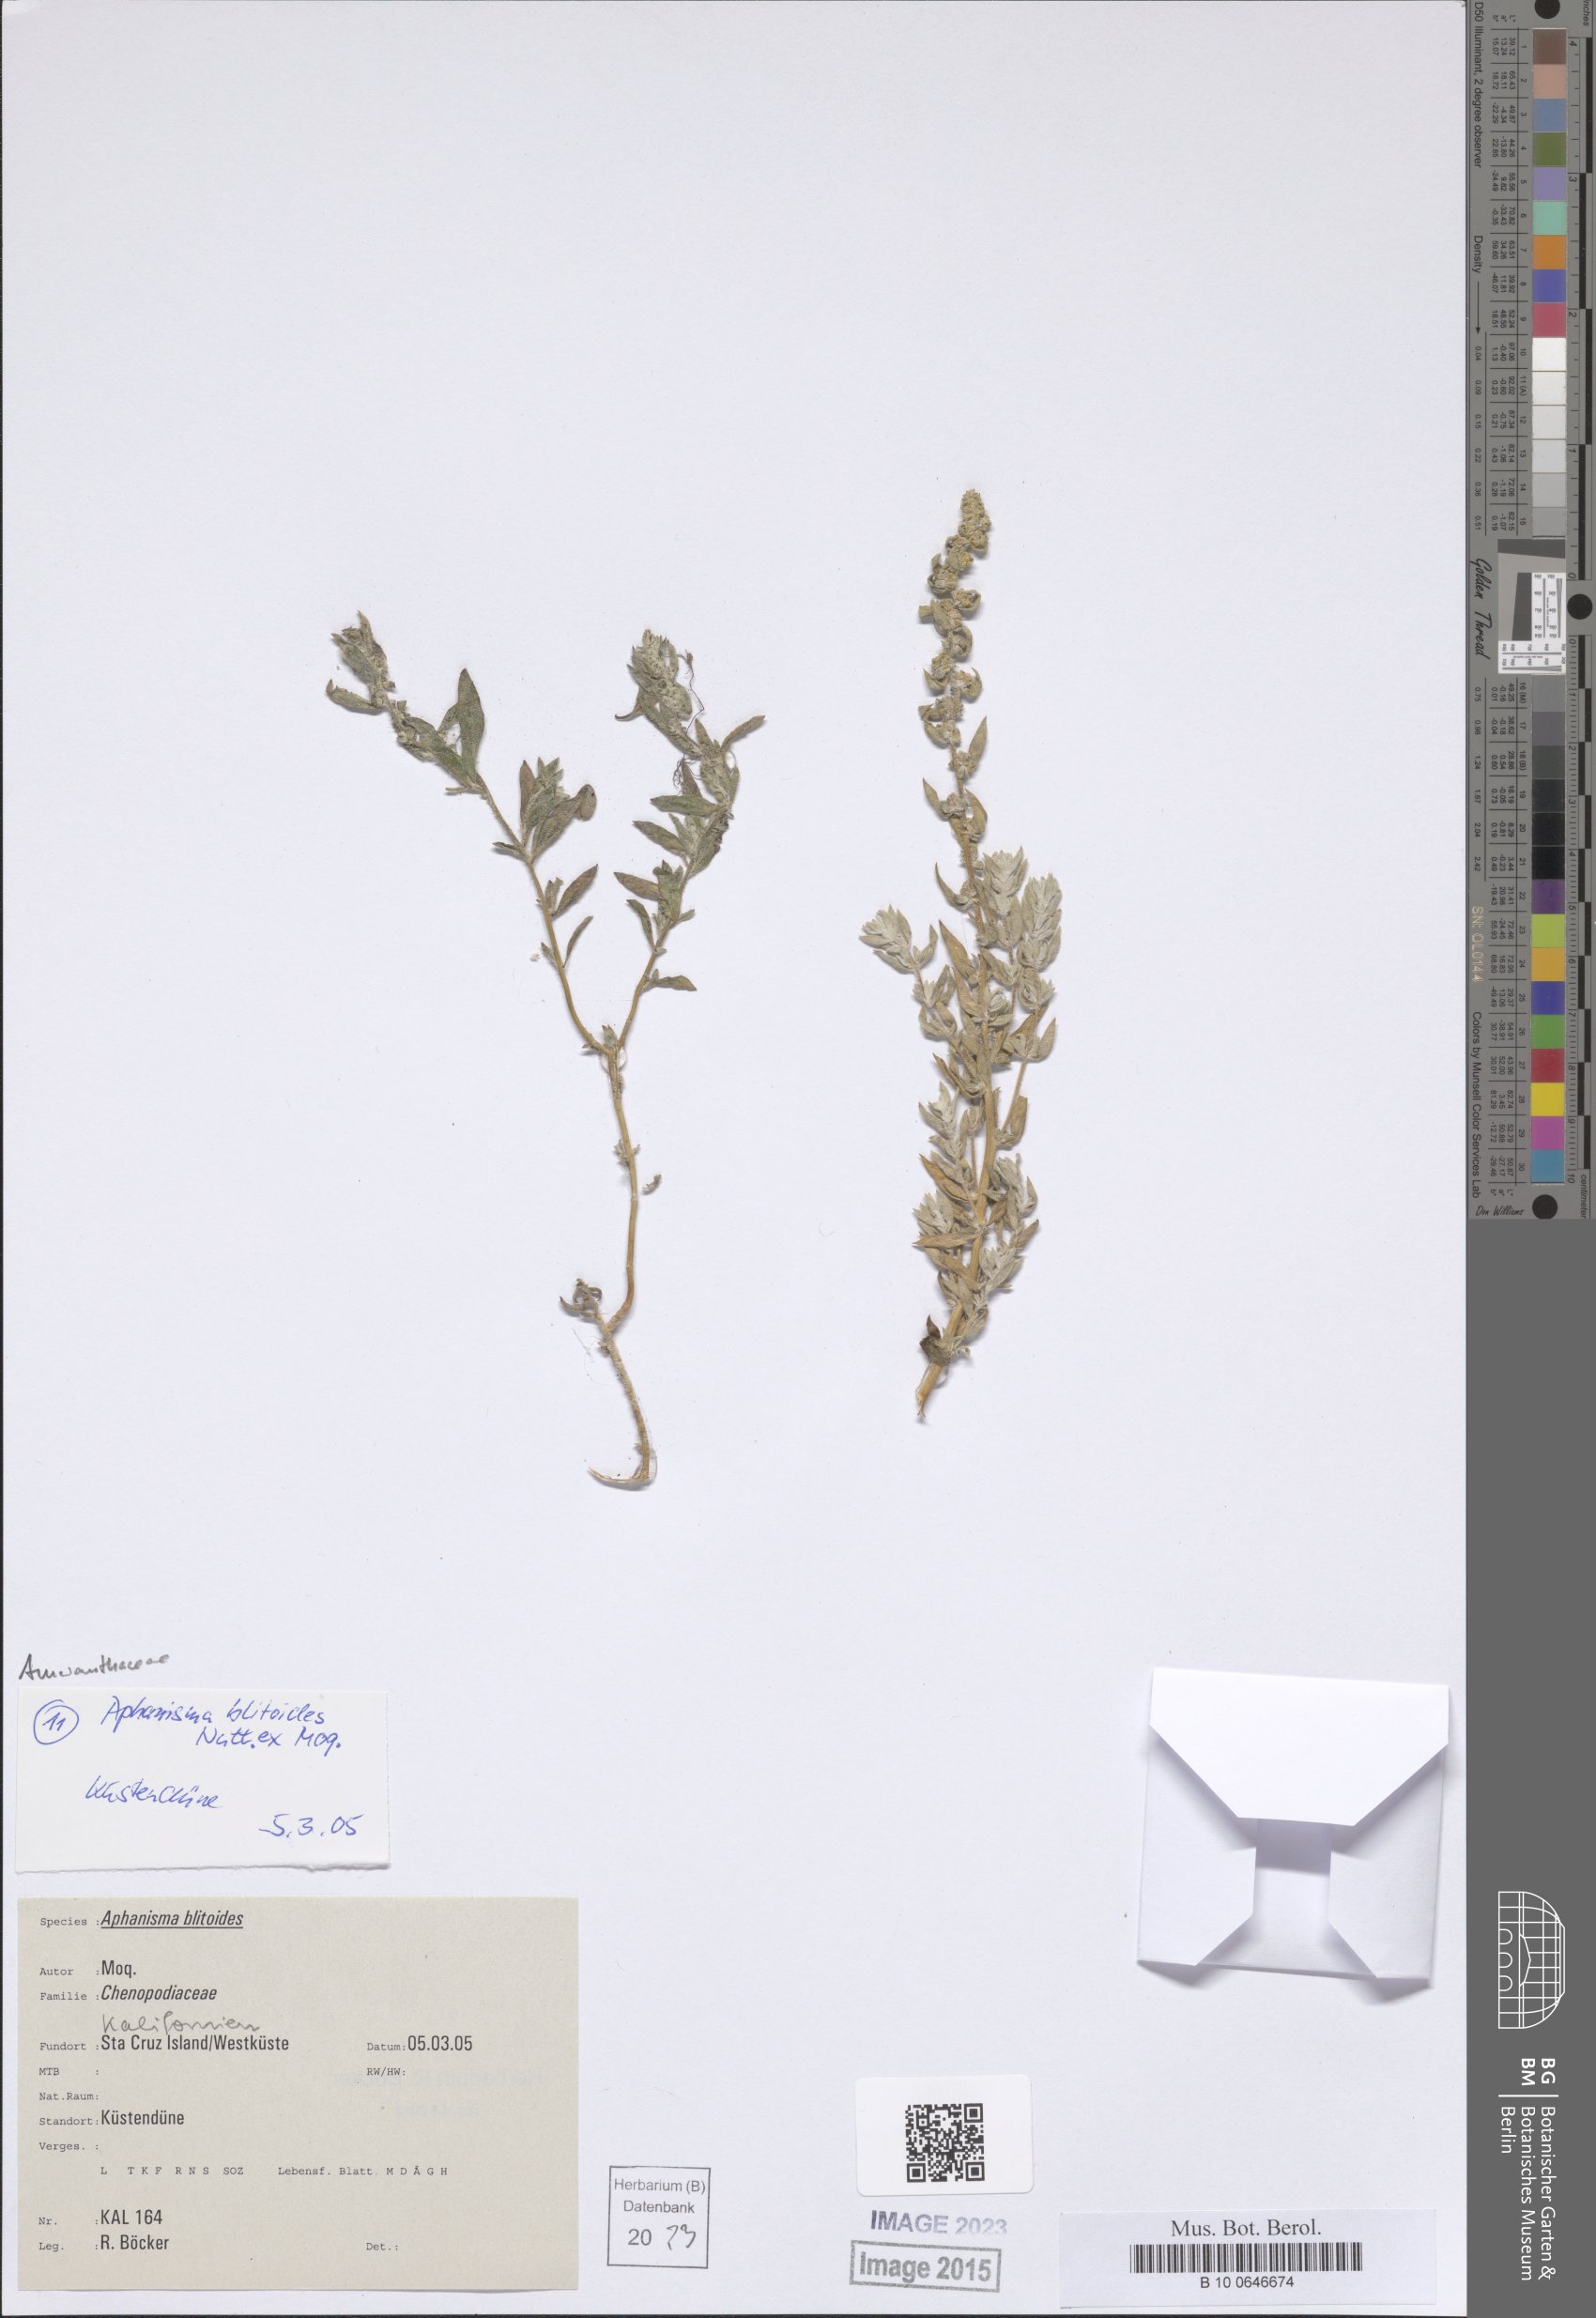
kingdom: Plantae
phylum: Tracheophyta
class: Magnoliopsida
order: Caryophyllales
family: Amaranthaceae
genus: Aphanisma
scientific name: Aphanisma blitoides
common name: Aphanisma
